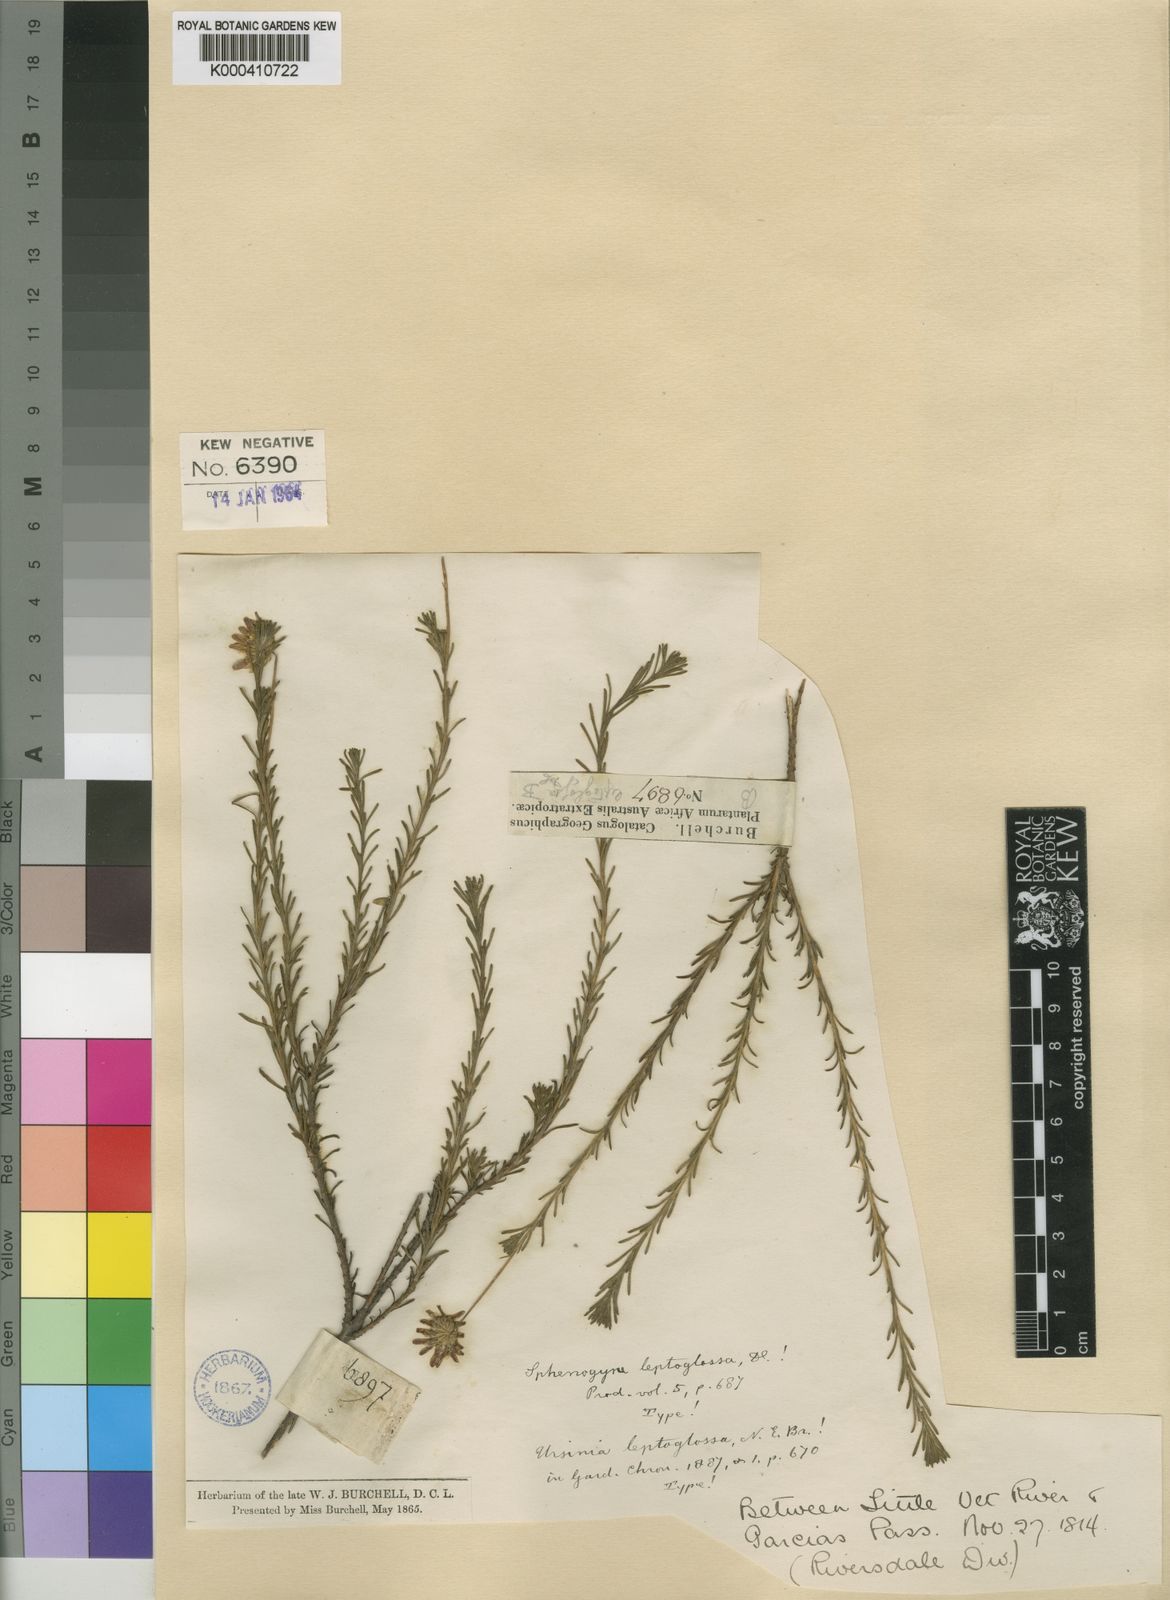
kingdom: Plantae
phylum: Tracheophyta
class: Magnoliopsida
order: Asterales
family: Asteraceae
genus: Ursinia
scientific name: Ursinia trifida
